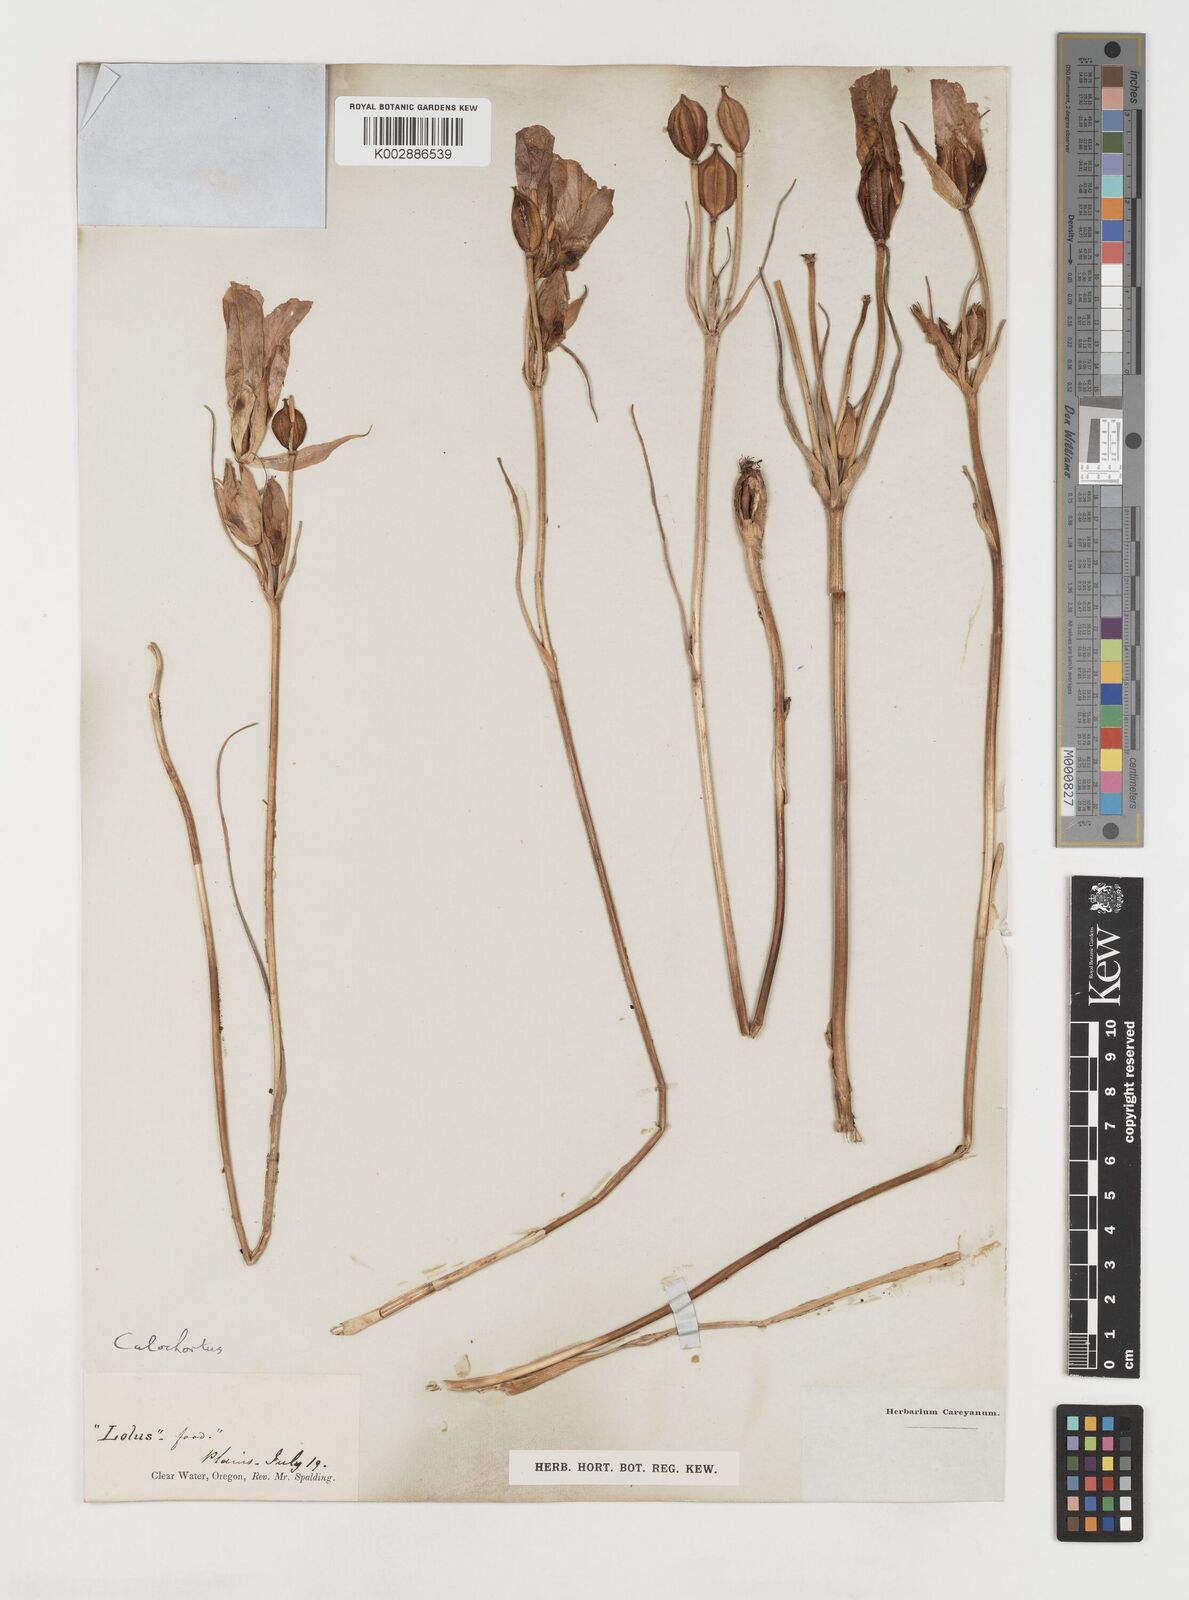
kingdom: Plantae
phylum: Tracheophyta
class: Liliopsida
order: Liliales
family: Liliaceae
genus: Calochortus
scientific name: Calochortus
